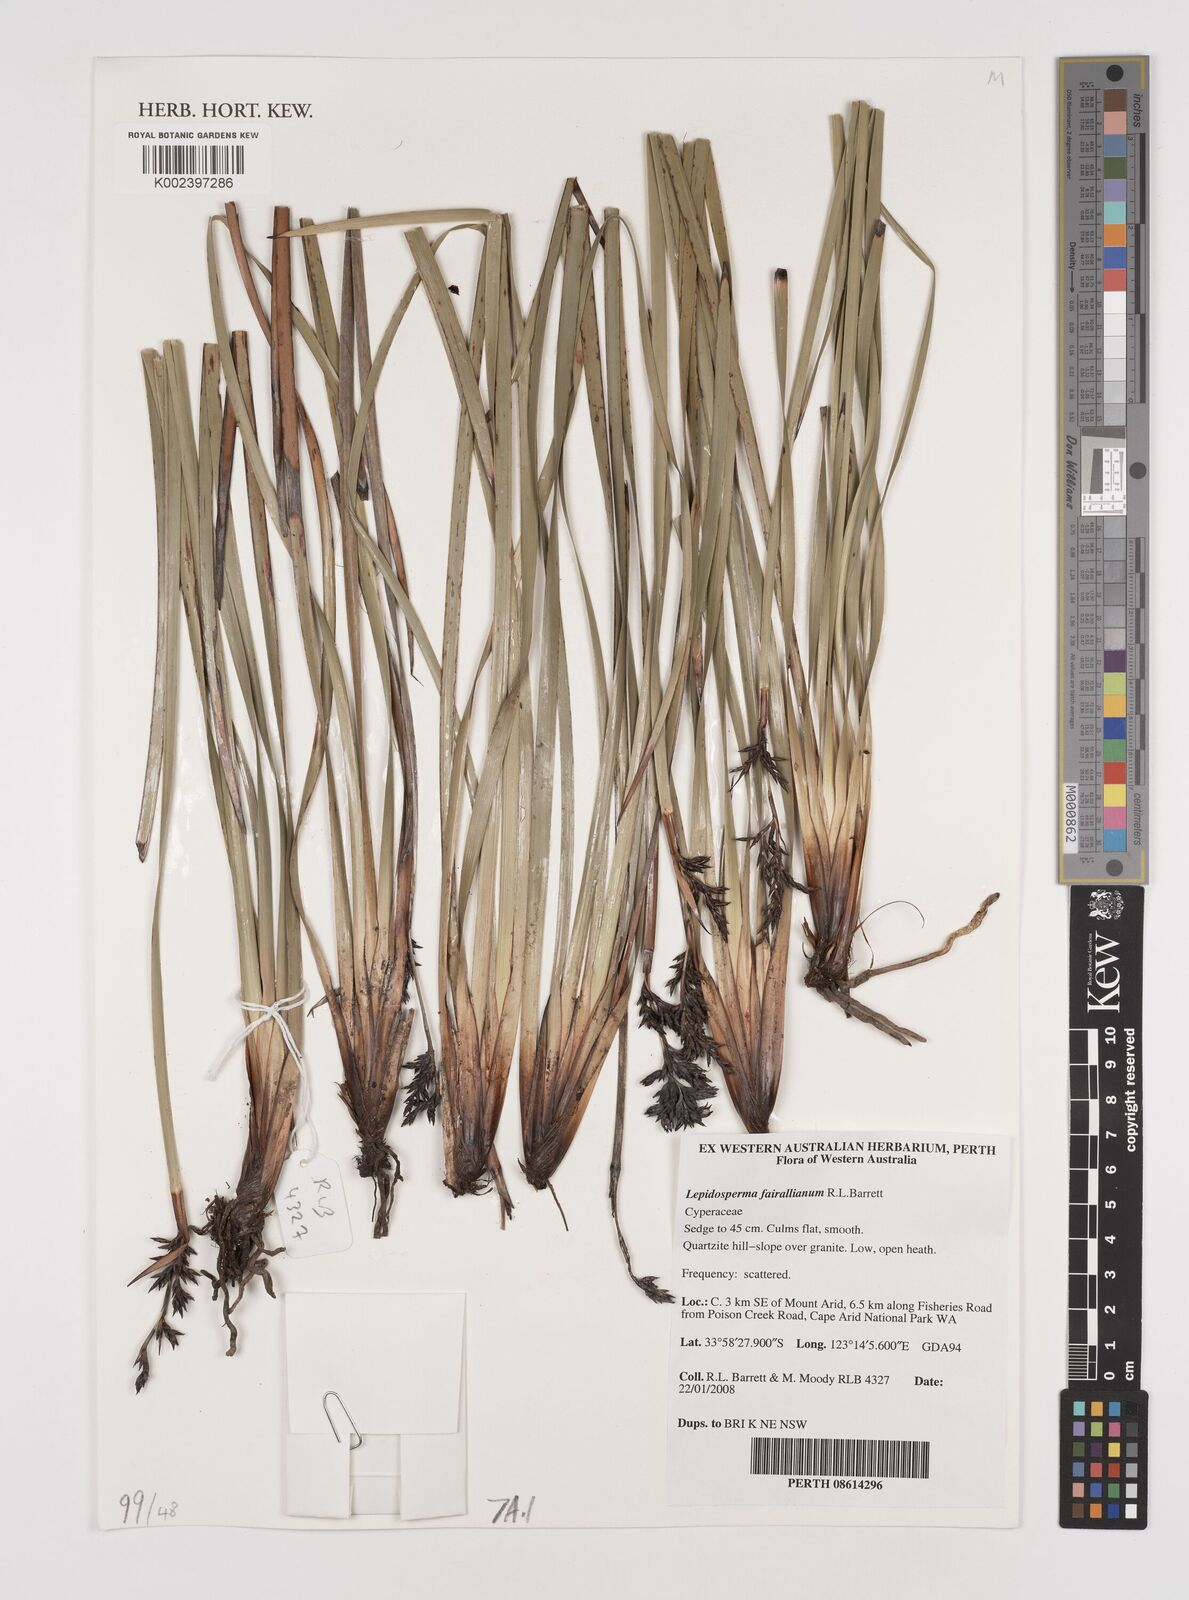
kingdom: Plantae
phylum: Tracheophyta
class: Liliopsida
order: Poales
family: Cyperaceae
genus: Lepidosperma
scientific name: Lepidosperma fairallianum
